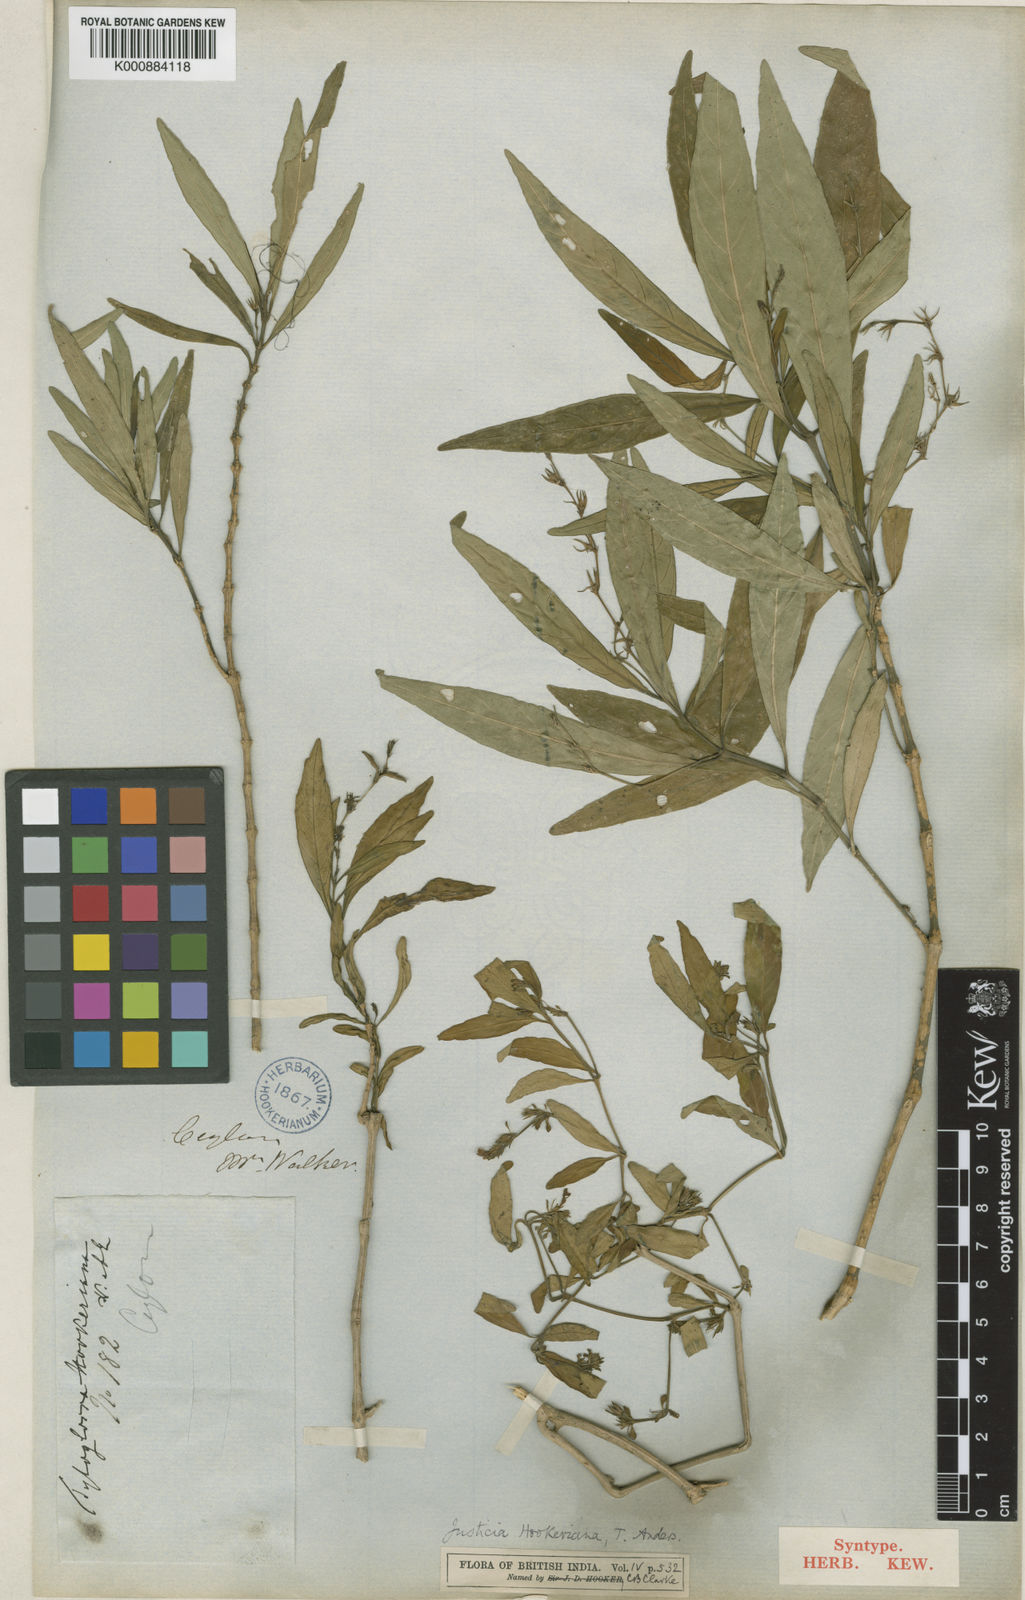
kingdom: Plantae
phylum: Tracheophyta
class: Magnoliopsida
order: Lamiales
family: Acanthaceae
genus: Leptostachya
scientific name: Leptostachya zeylanica
